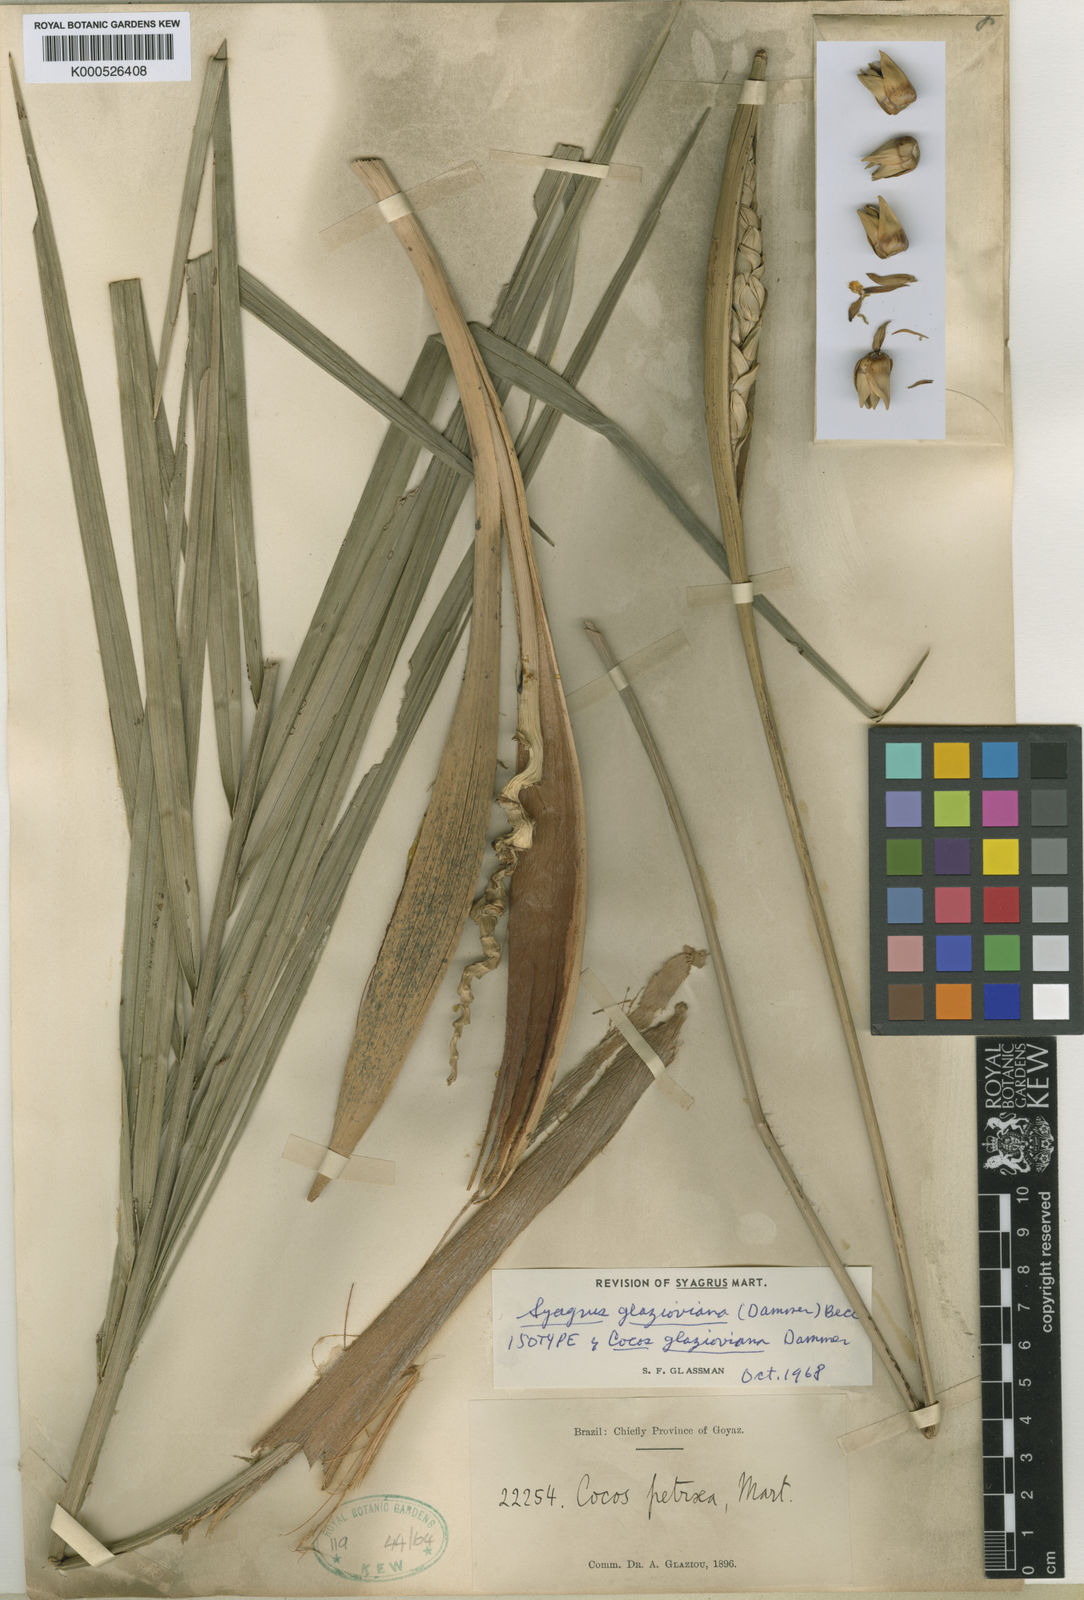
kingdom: Plantae
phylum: Tracheophyta
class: Liliopsida
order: Arecales
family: Arecaceae
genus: Syagrus
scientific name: Syagrus petraea
